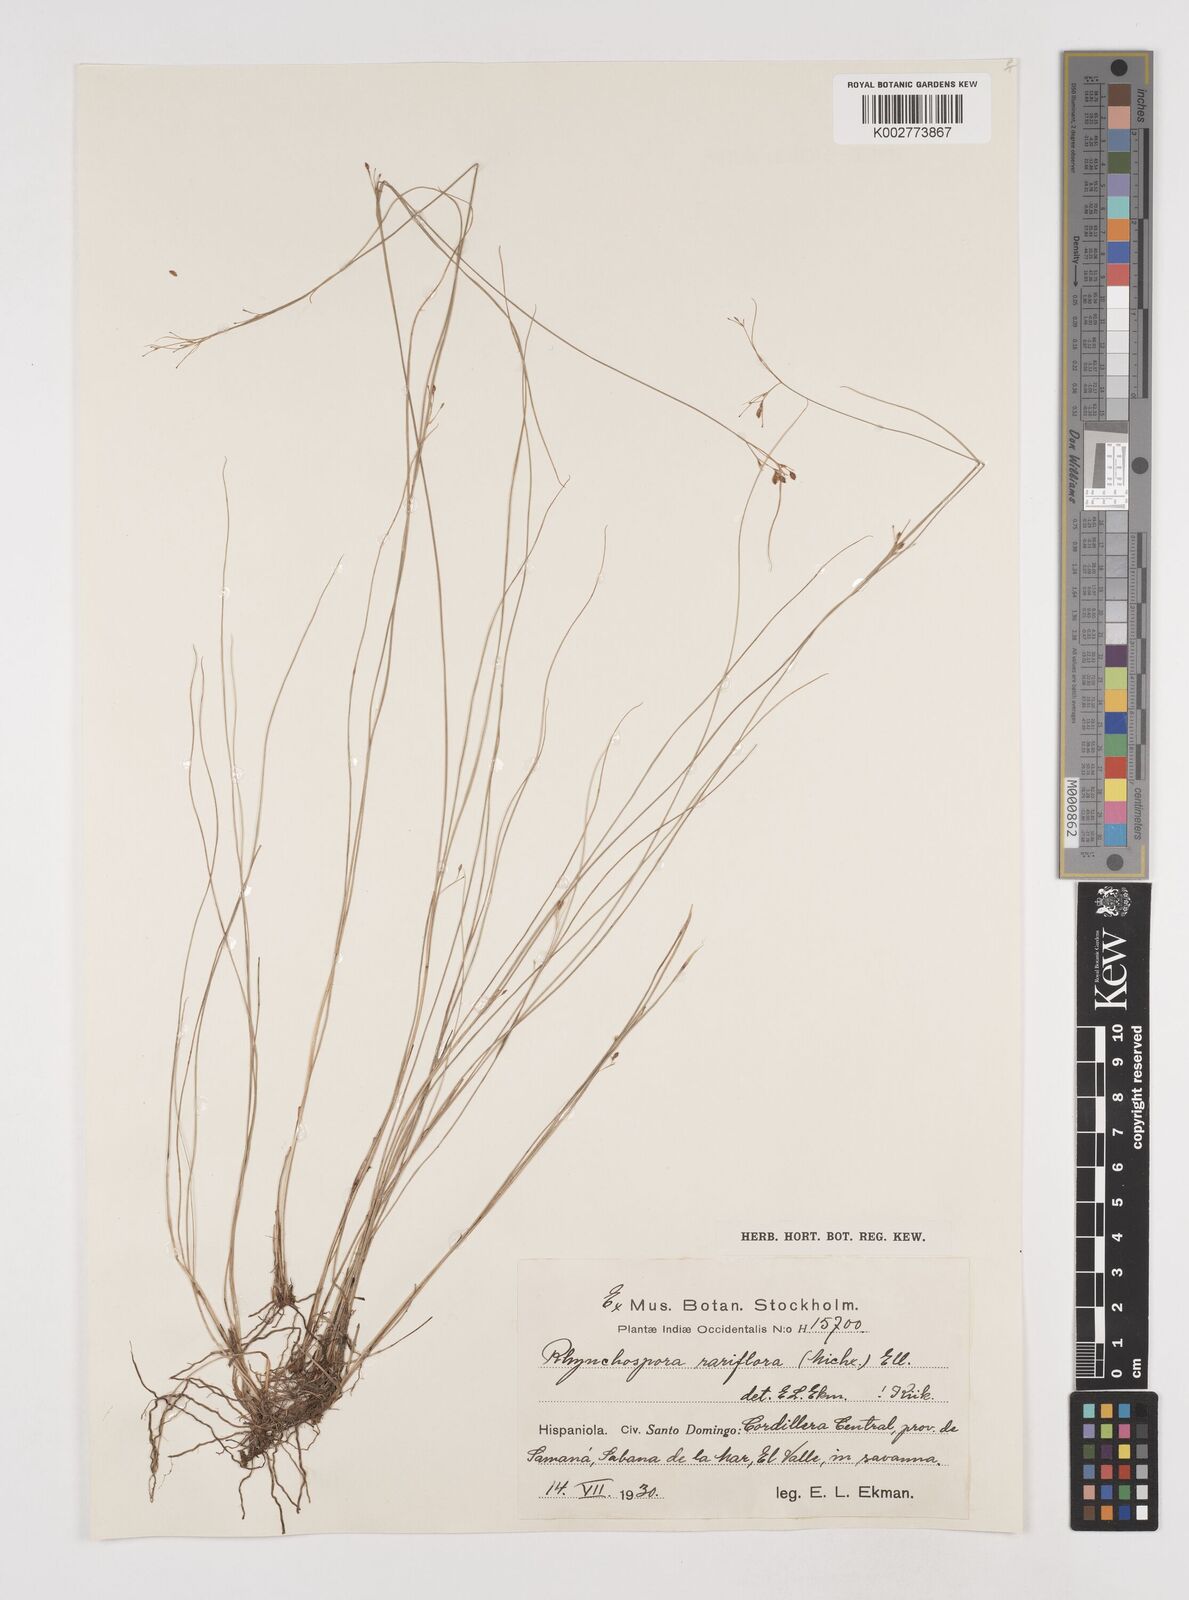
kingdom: Plantae
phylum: Tracheophyta
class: Liliopsida
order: Poales
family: Cyperaceae
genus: Rhynchospora
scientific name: Rhynchospora rariflora
